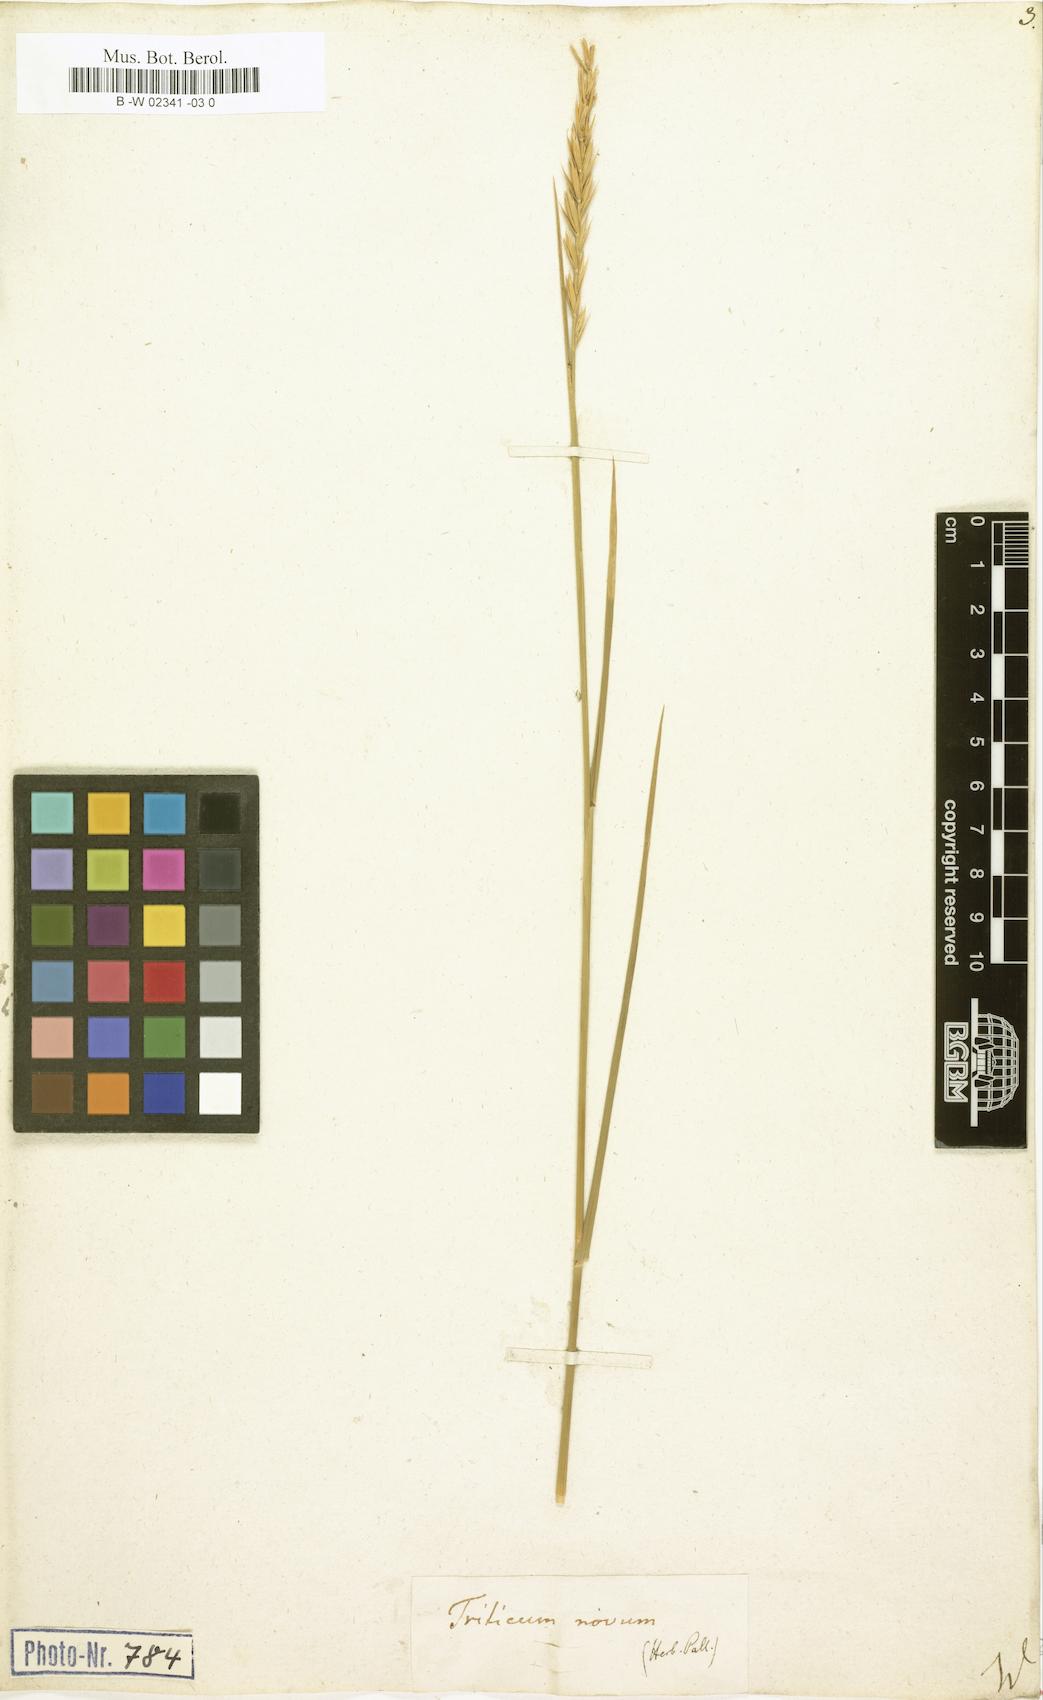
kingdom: Plantae
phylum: Tracheophyta
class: Liliopsida
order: Poales
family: Poaceae
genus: Agropyron
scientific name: Agropyron fragile
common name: Siberian wheatgrass
